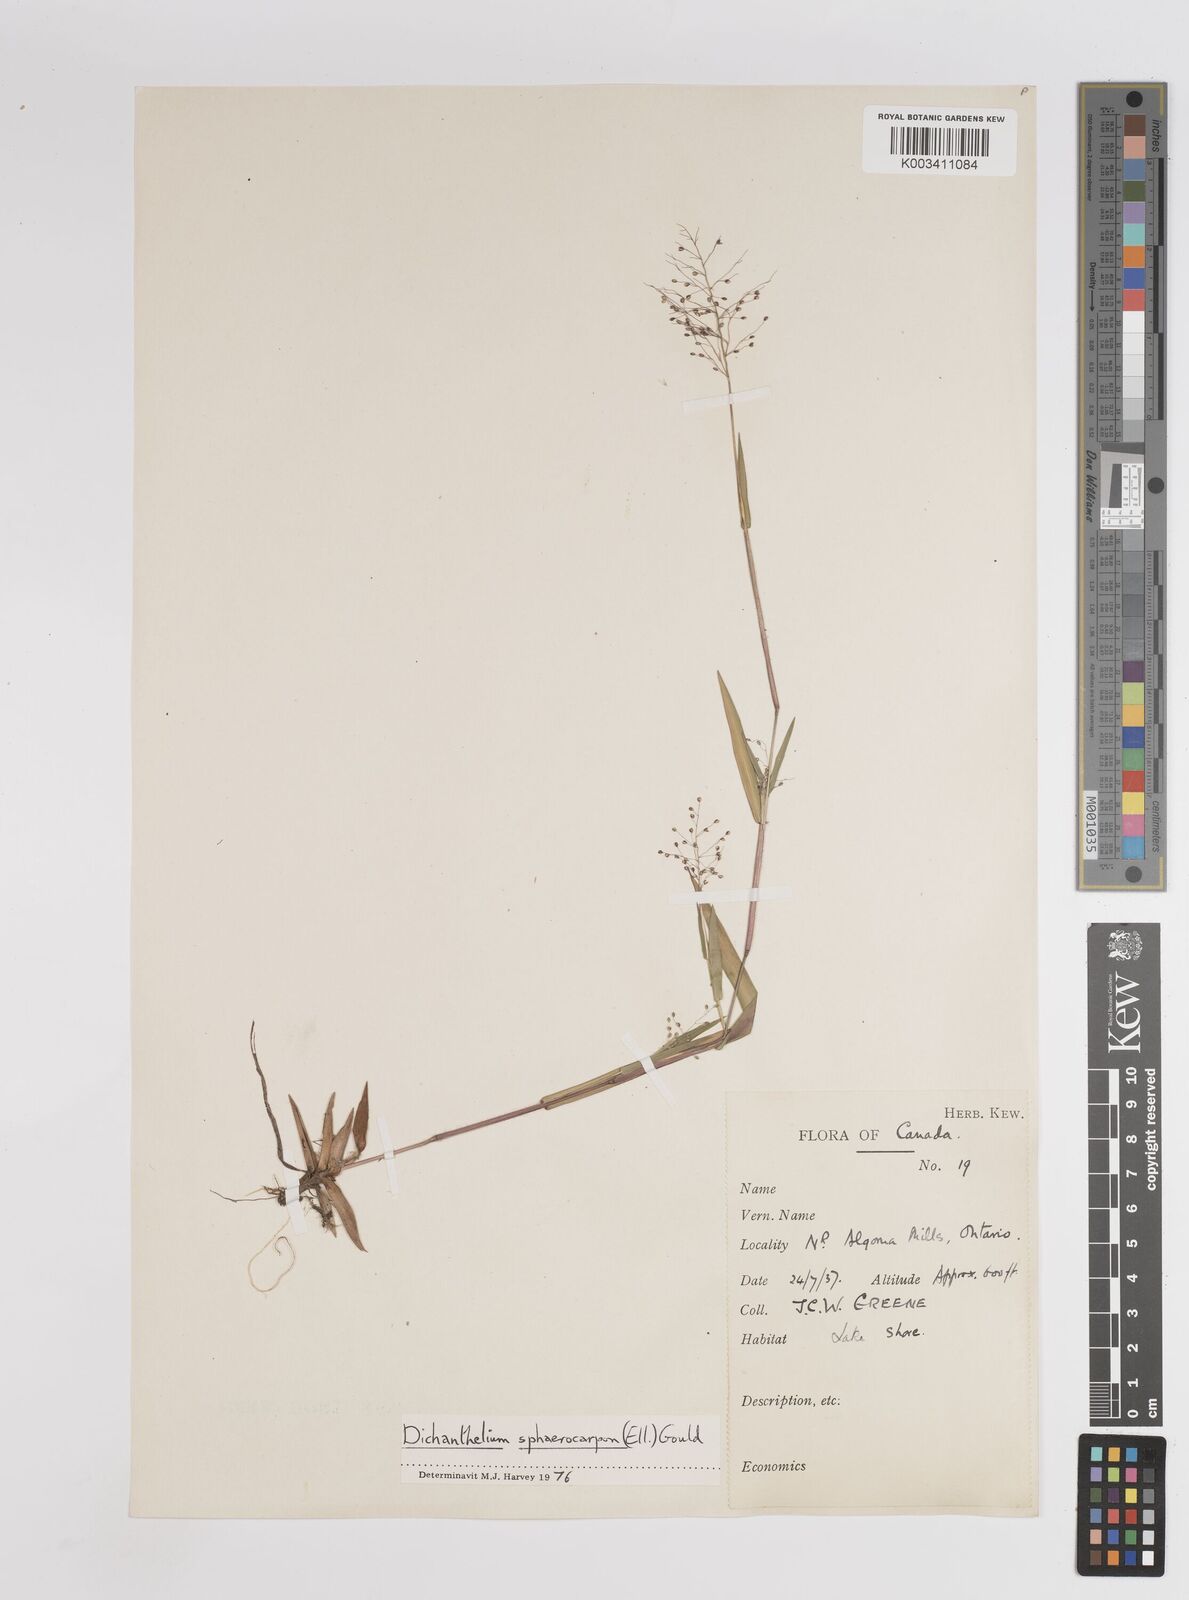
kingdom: Plantae
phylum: Tracheophyta
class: Liliopsida
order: Poales
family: Poaceae
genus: Dichanthelium
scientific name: Dichanthelium sphaerocarpon
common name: Round-fruited panicgrass
